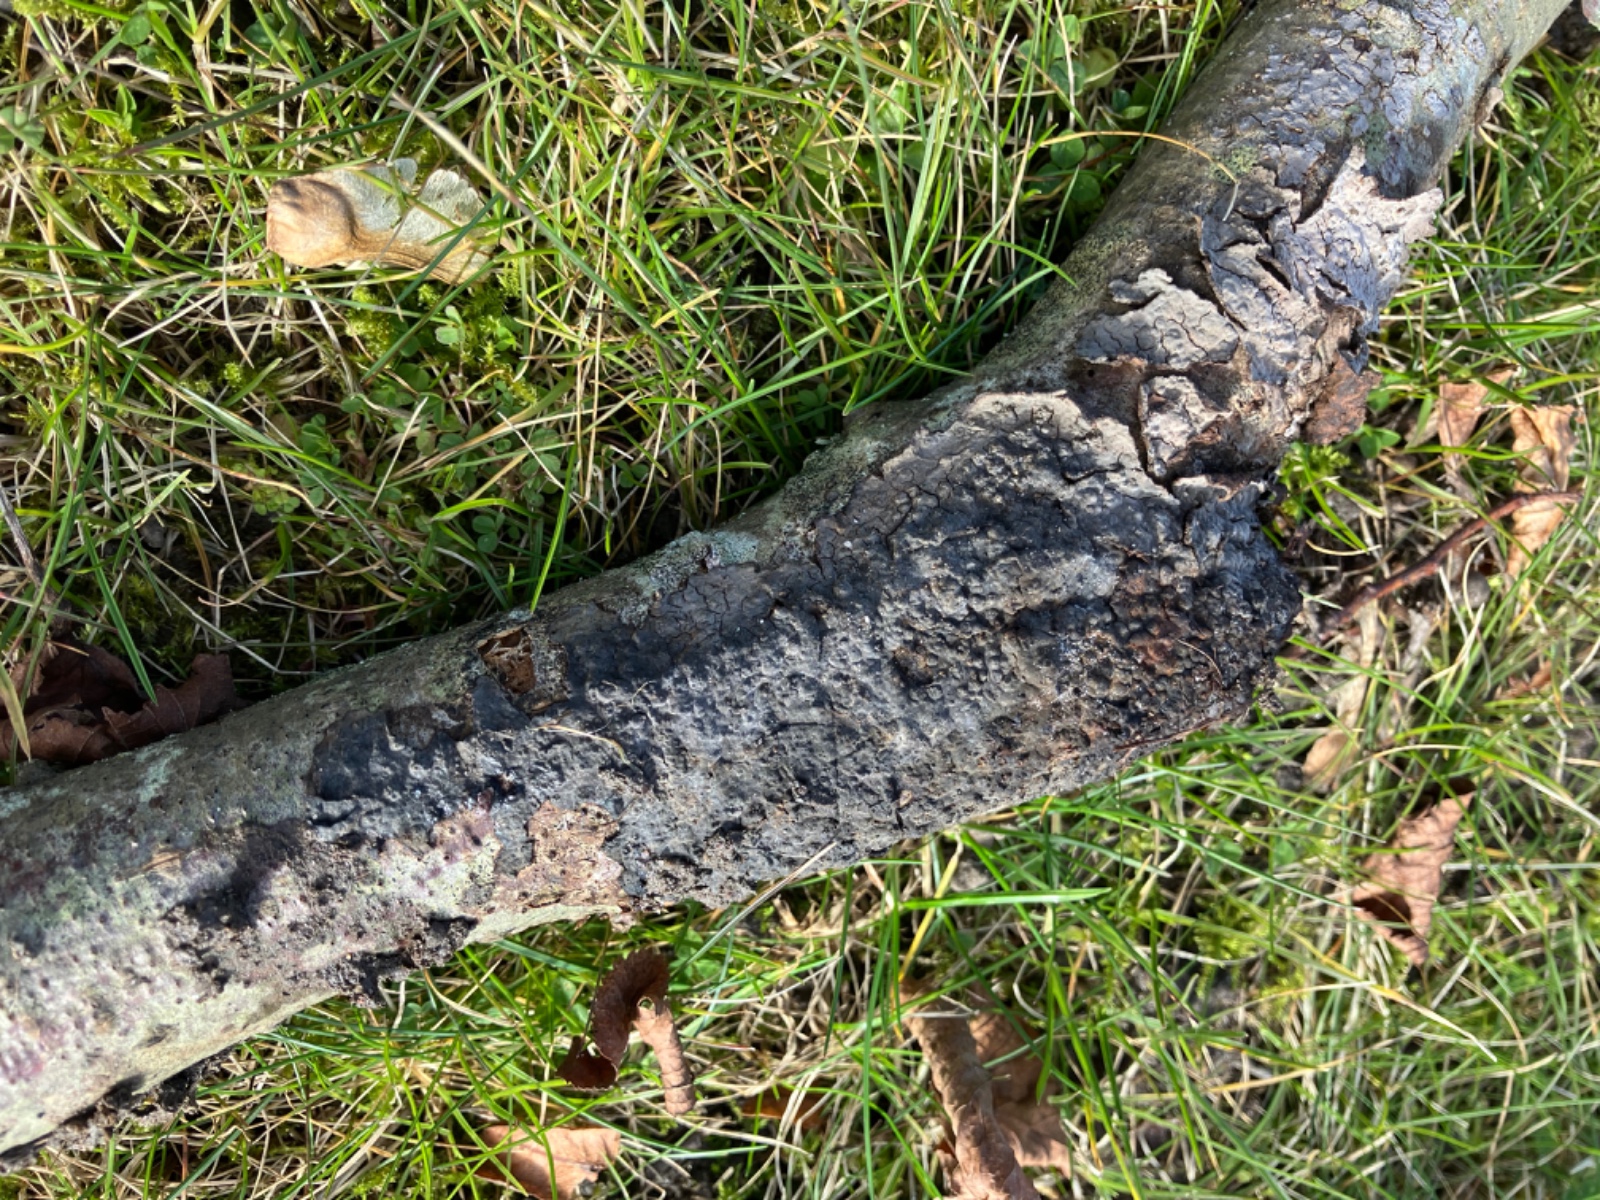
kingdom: Fungi
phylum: Basidiomycota
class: Agaricomycetes
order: Russulales
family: Peniophoraceae
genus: Peniophora
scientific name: Peniophora rufomarginata
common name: linde-voksskind
